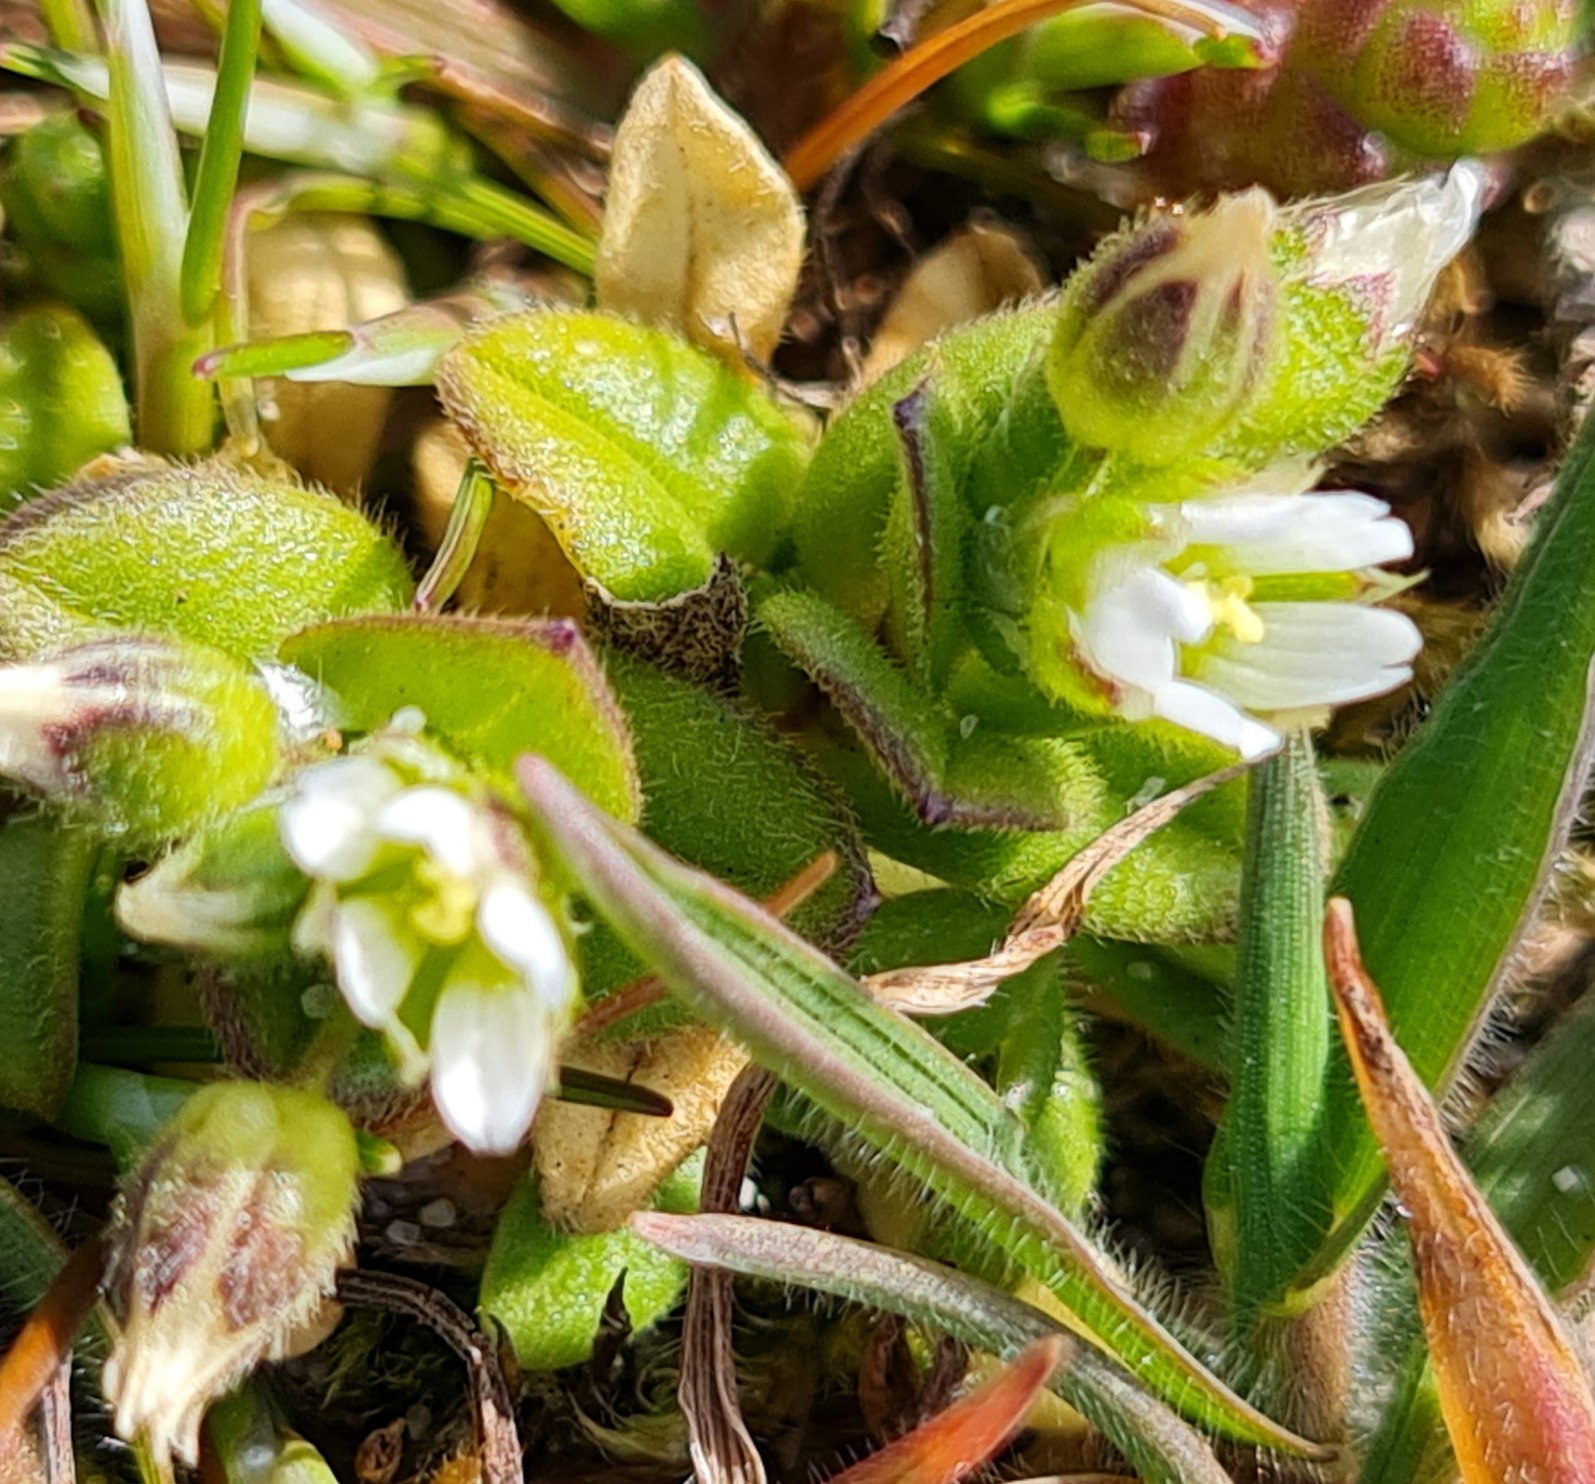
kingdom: Plantae
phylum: Tracheophyta
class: Magnoliopsida
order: Caryophyllales
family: Caryophyllaceae
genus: Cerastium
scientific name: Cerastium semidecandrum
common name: Femhannet hønsetarm
